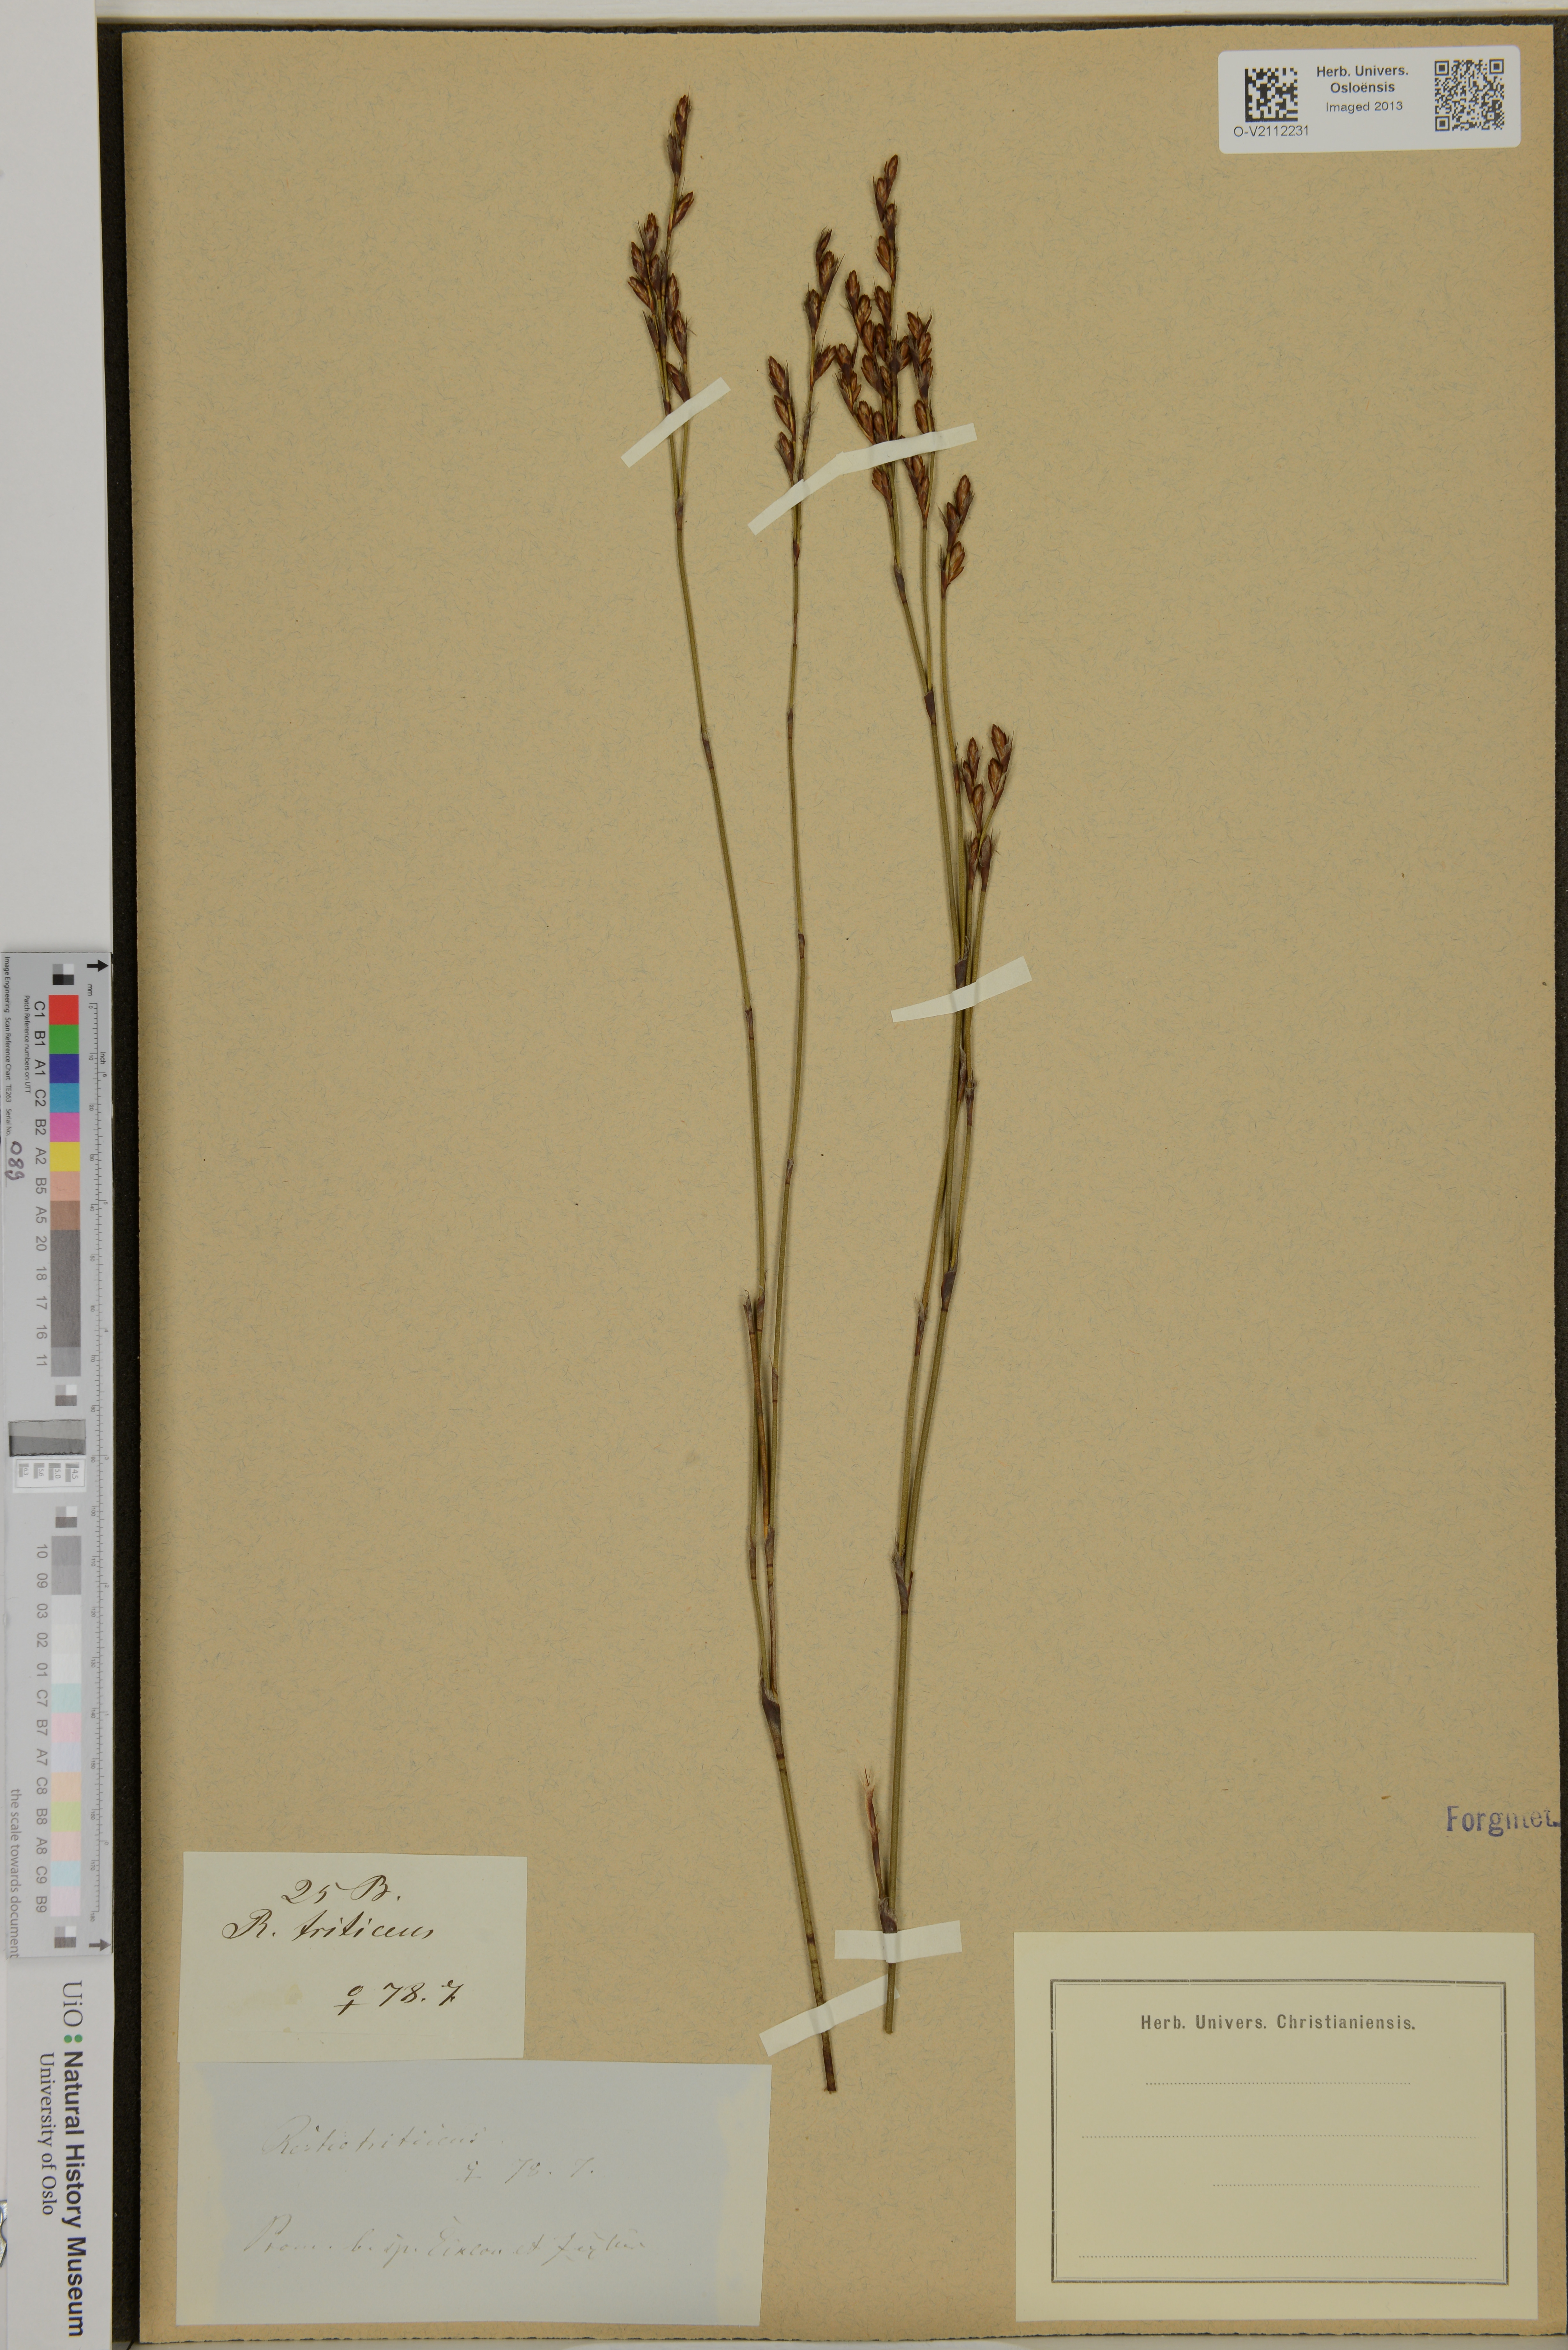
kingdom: Plantae
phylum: Tracheophyta
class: Liliopsida
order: Poales
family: Restionaceae
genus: Restio
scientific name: Restio triticeus
